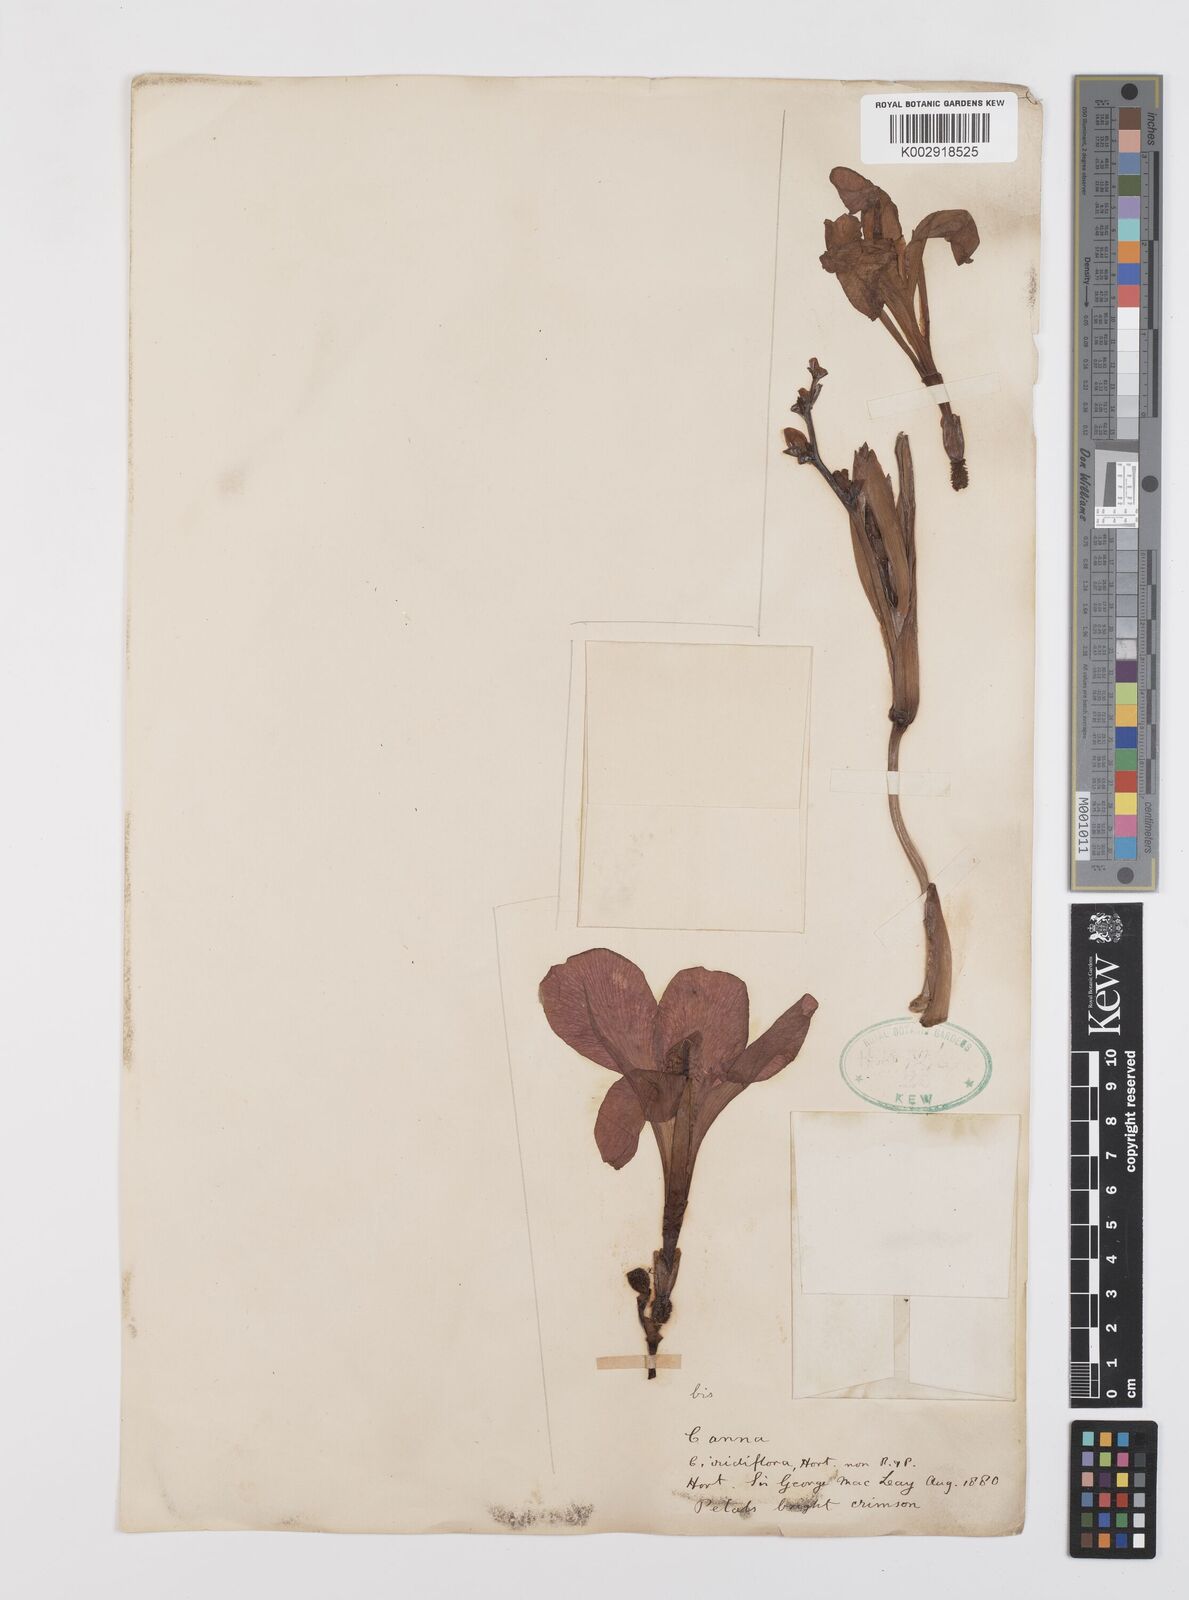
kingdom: Plantae
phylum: Tracheophyta
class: Liliopsida
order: Zingiberales
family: Cannaceae
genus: Canna
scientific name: Canna iridiflora
